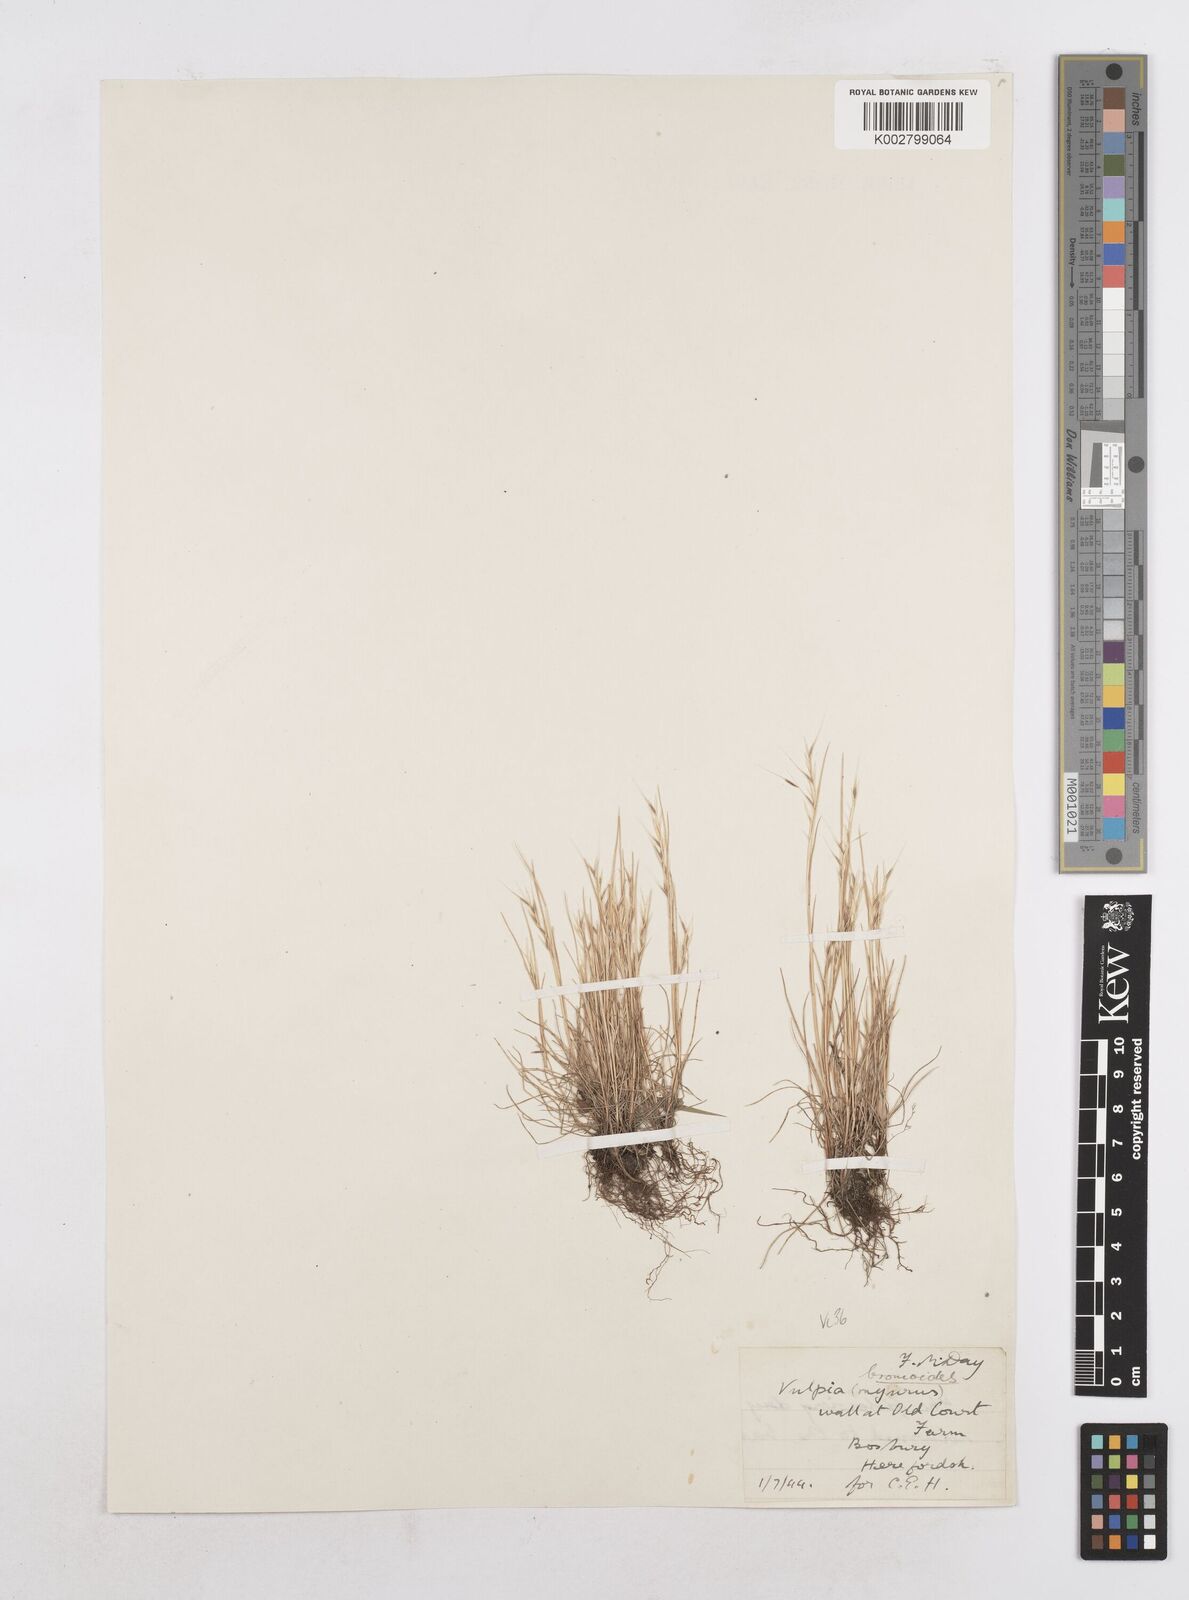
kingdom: Plantae
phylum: Tracheophyta
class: Liliopsida
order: Poales
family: Poaceae
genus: Festuca
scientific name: Festuca bromoides
